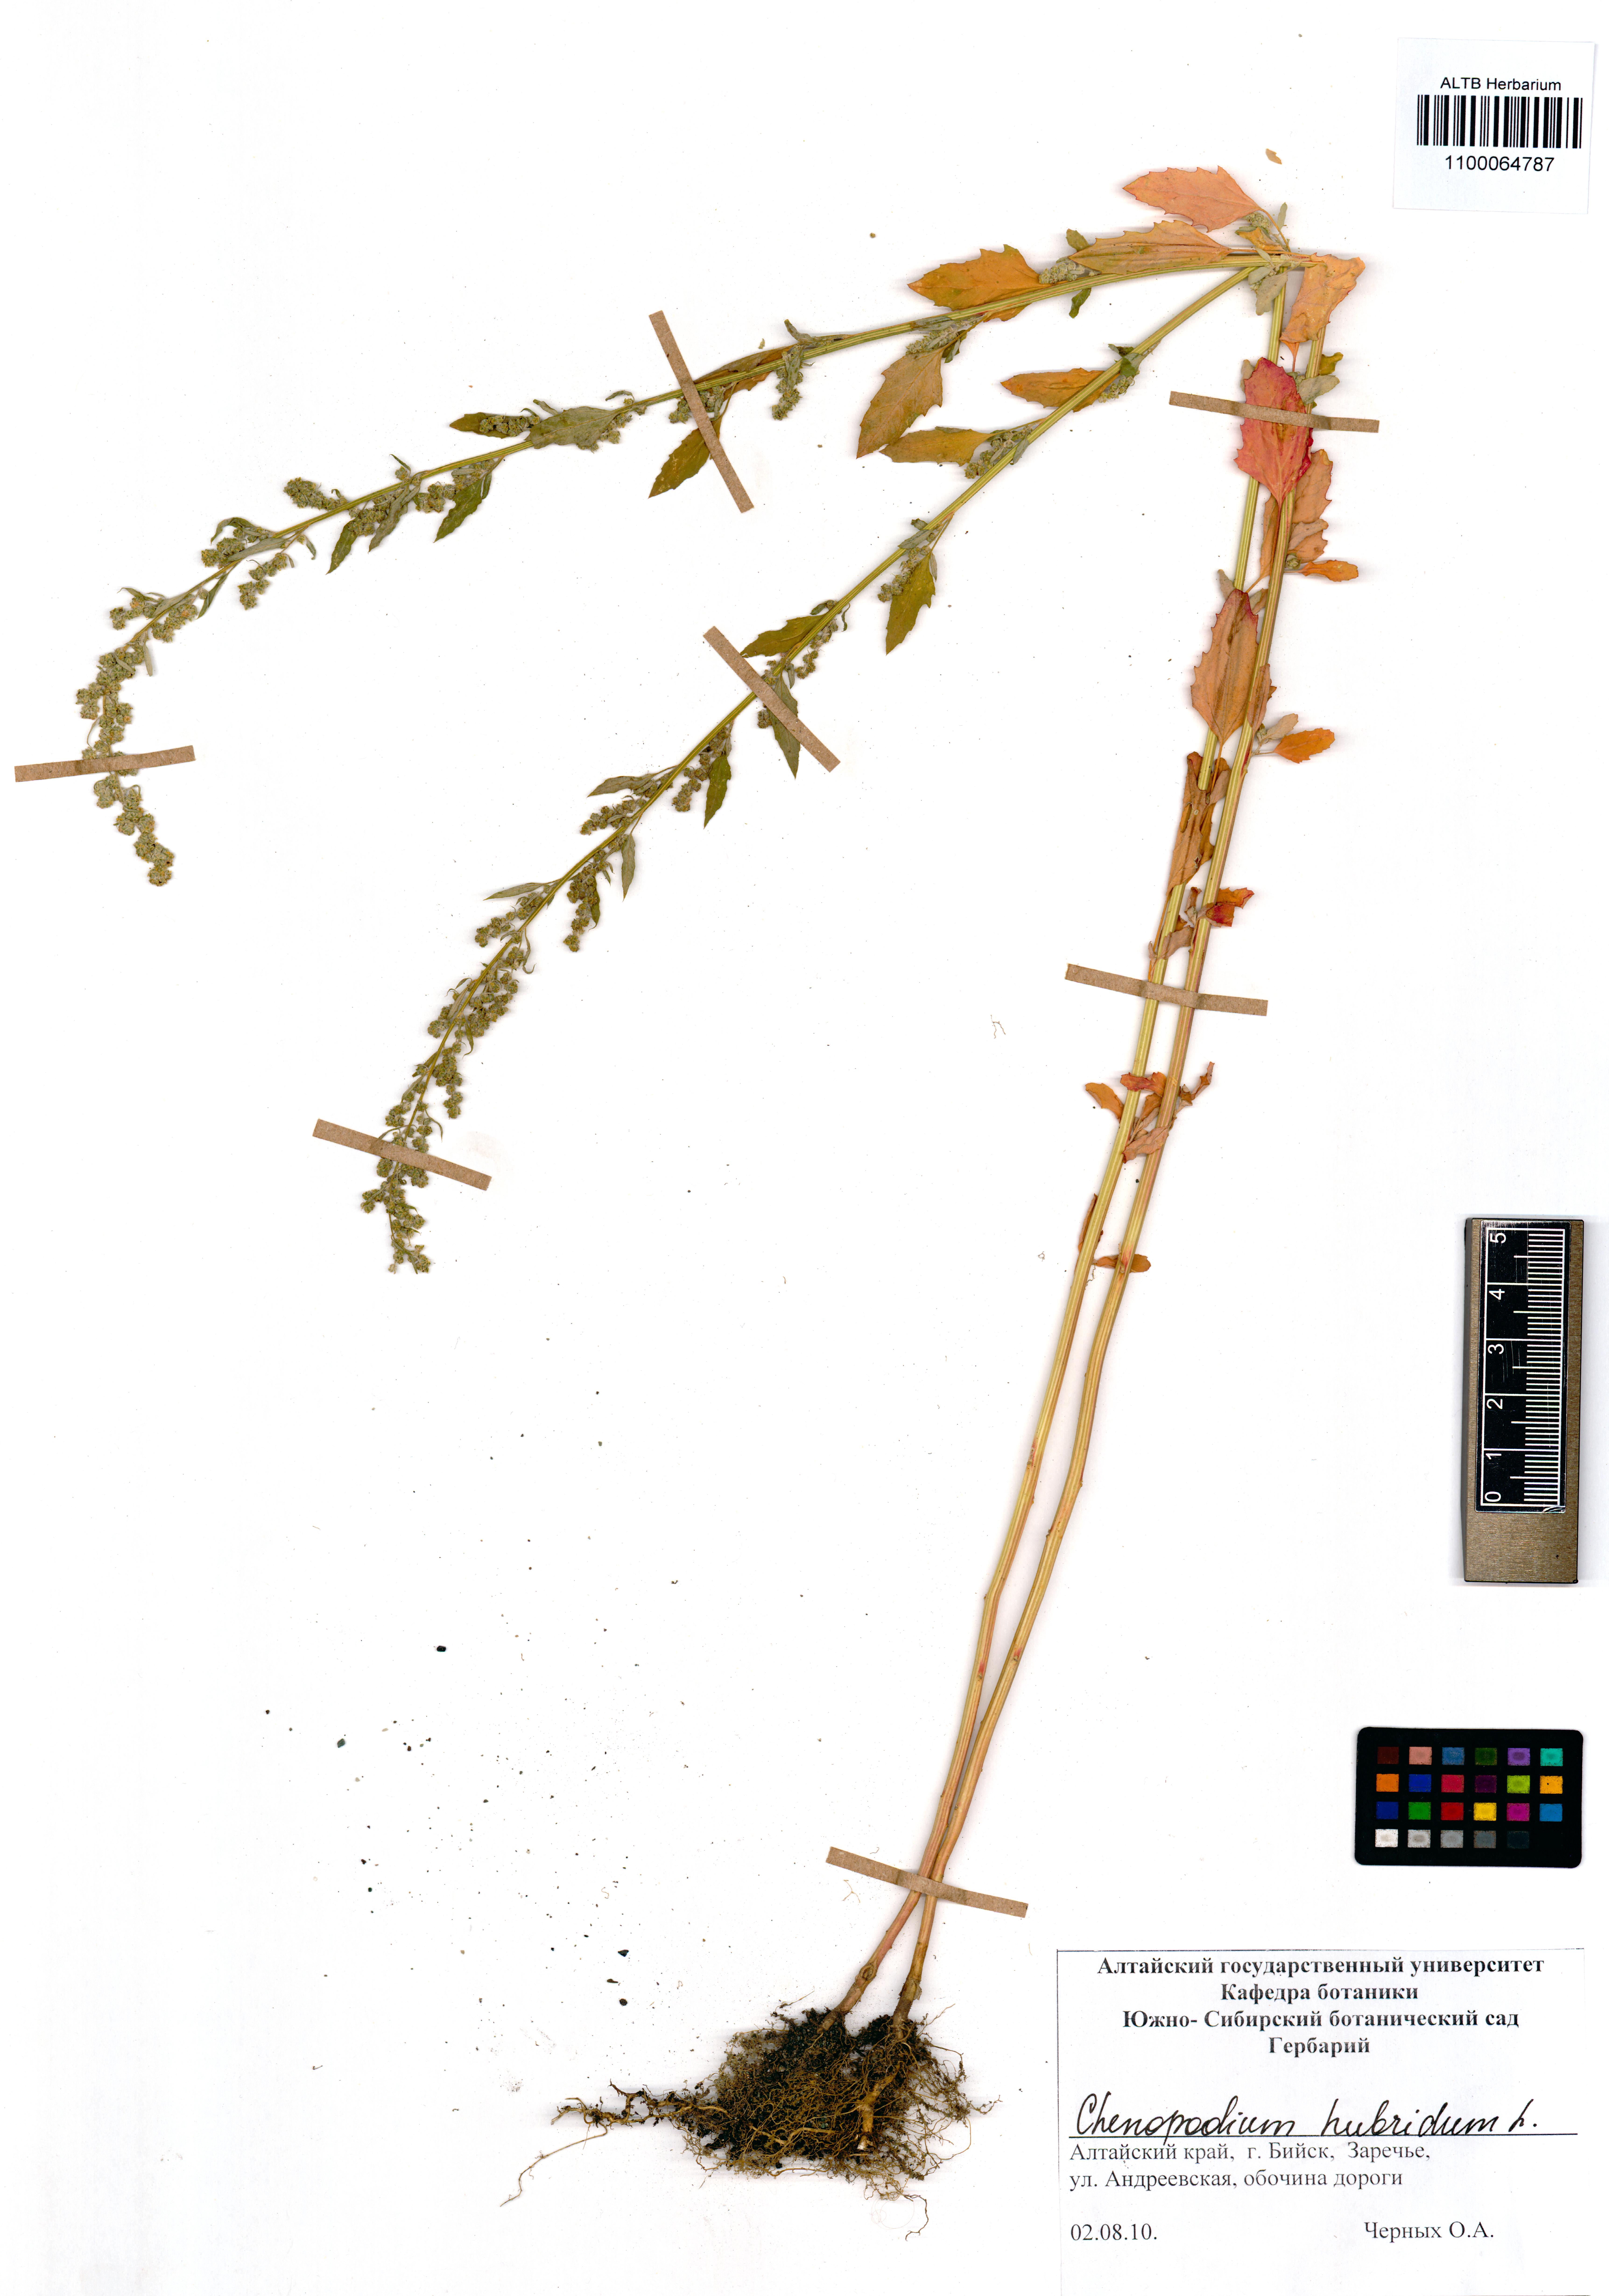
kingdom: Plantae
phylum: Tracheophyta
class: Magnoliopsida
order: Caryophyllales
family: Amaranthaceae
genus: Chenopodiastrum
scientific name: Chenopodiastrum hybridum
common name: Mapleleaf goosefoot
